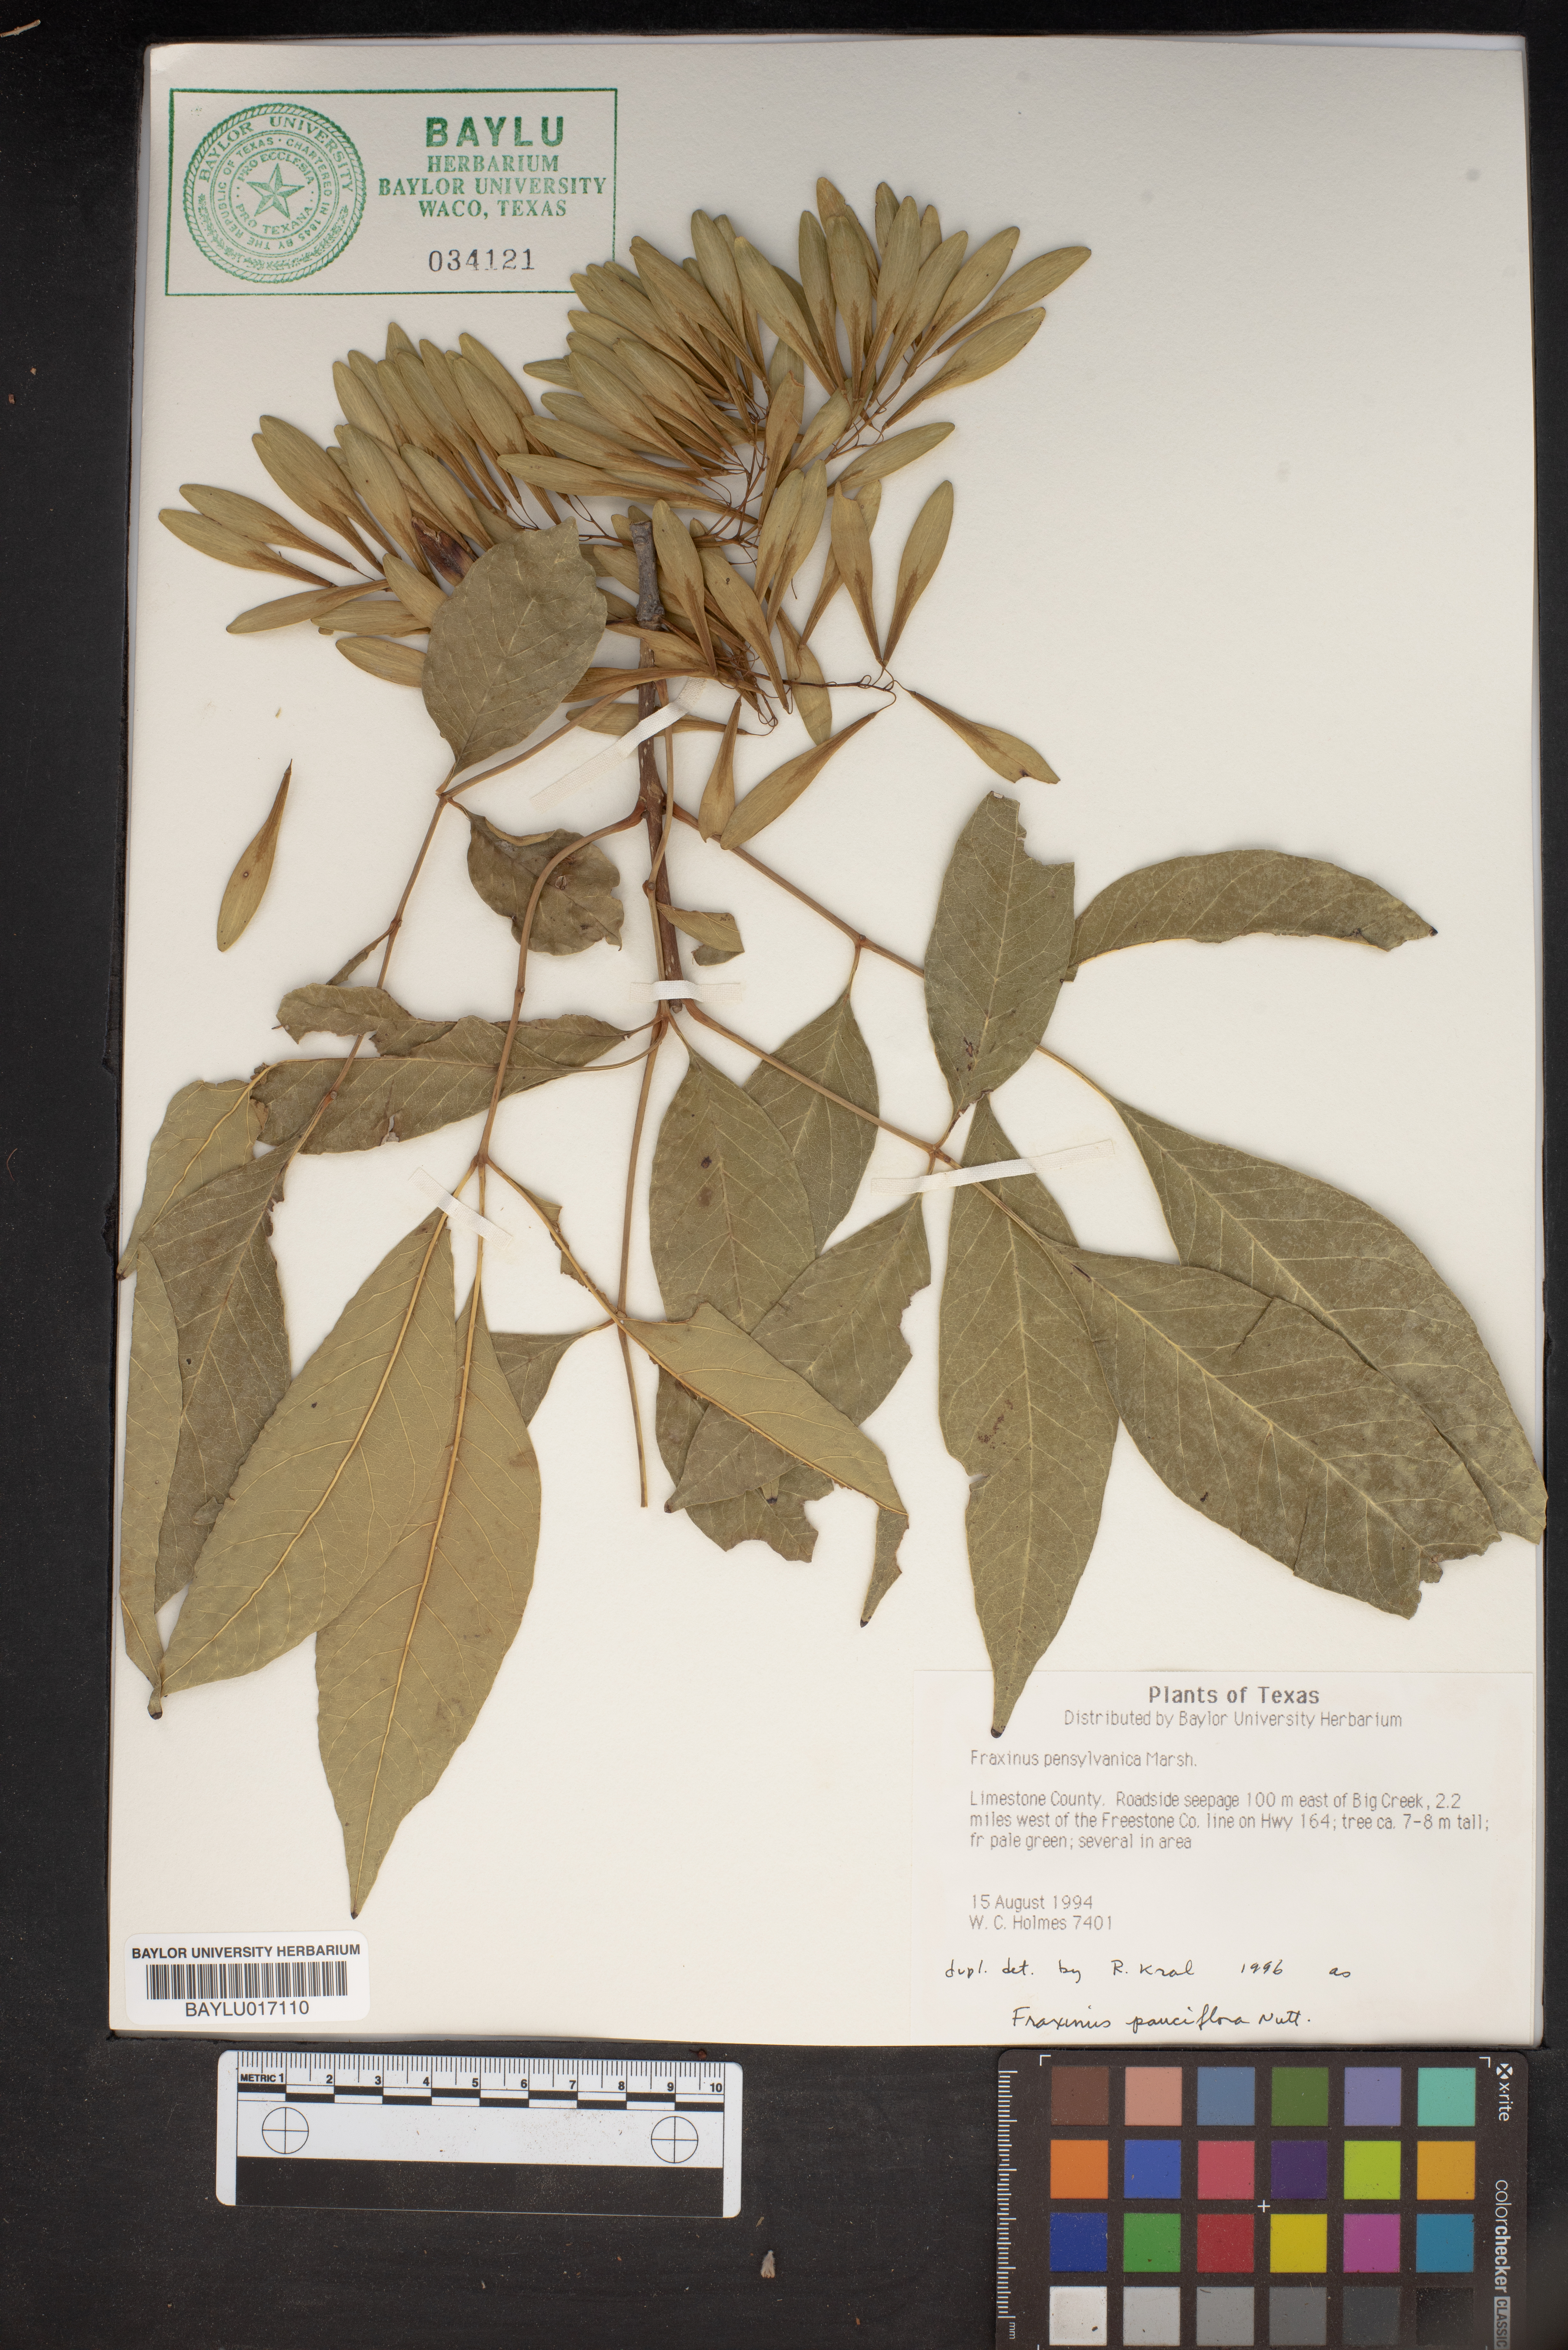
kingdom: Plantae
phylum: Tracheophyta
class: Magnoliopsida
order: Lamiales
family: Oleaceae
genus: Fraxinus
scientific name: Fraxinus pennsylvanica
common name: Green ash
